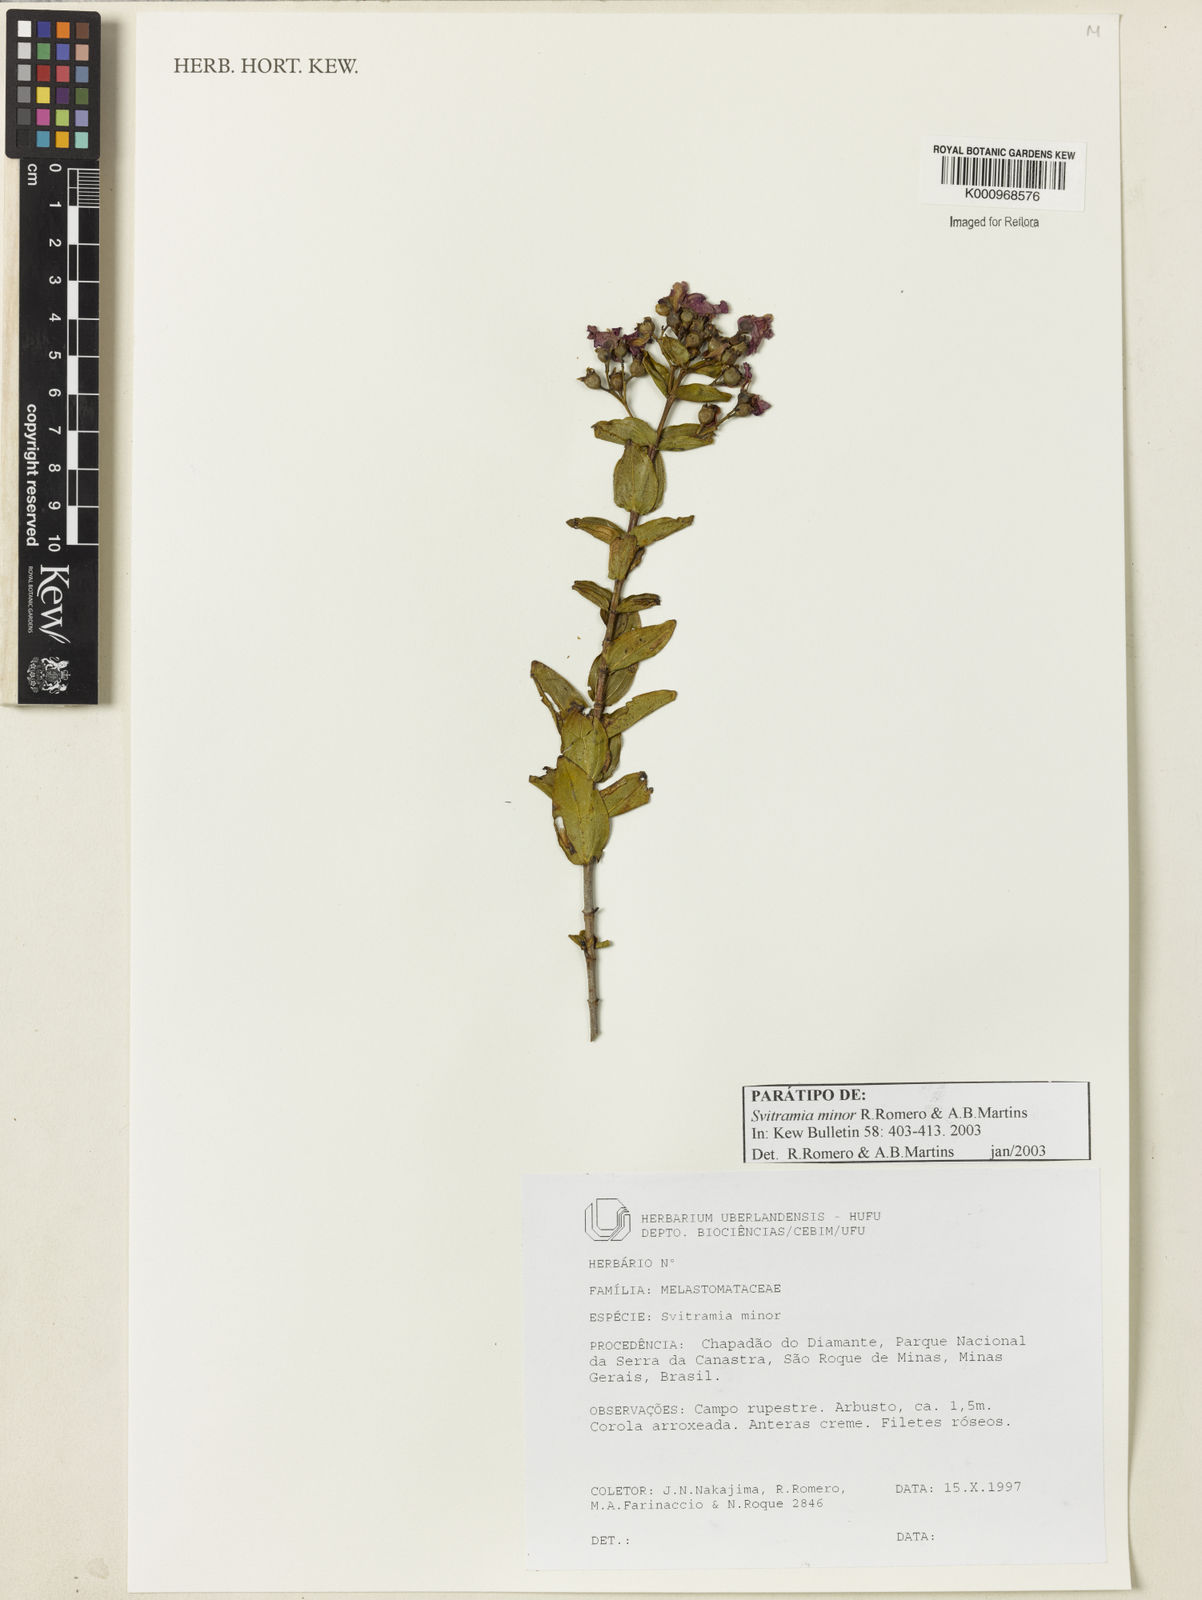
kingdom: Plantae
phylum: Tracheophyta
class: Magnoliopsida
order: Myrtales
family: Melastomataceae
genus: Pleroma
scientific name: Pleroma minus
